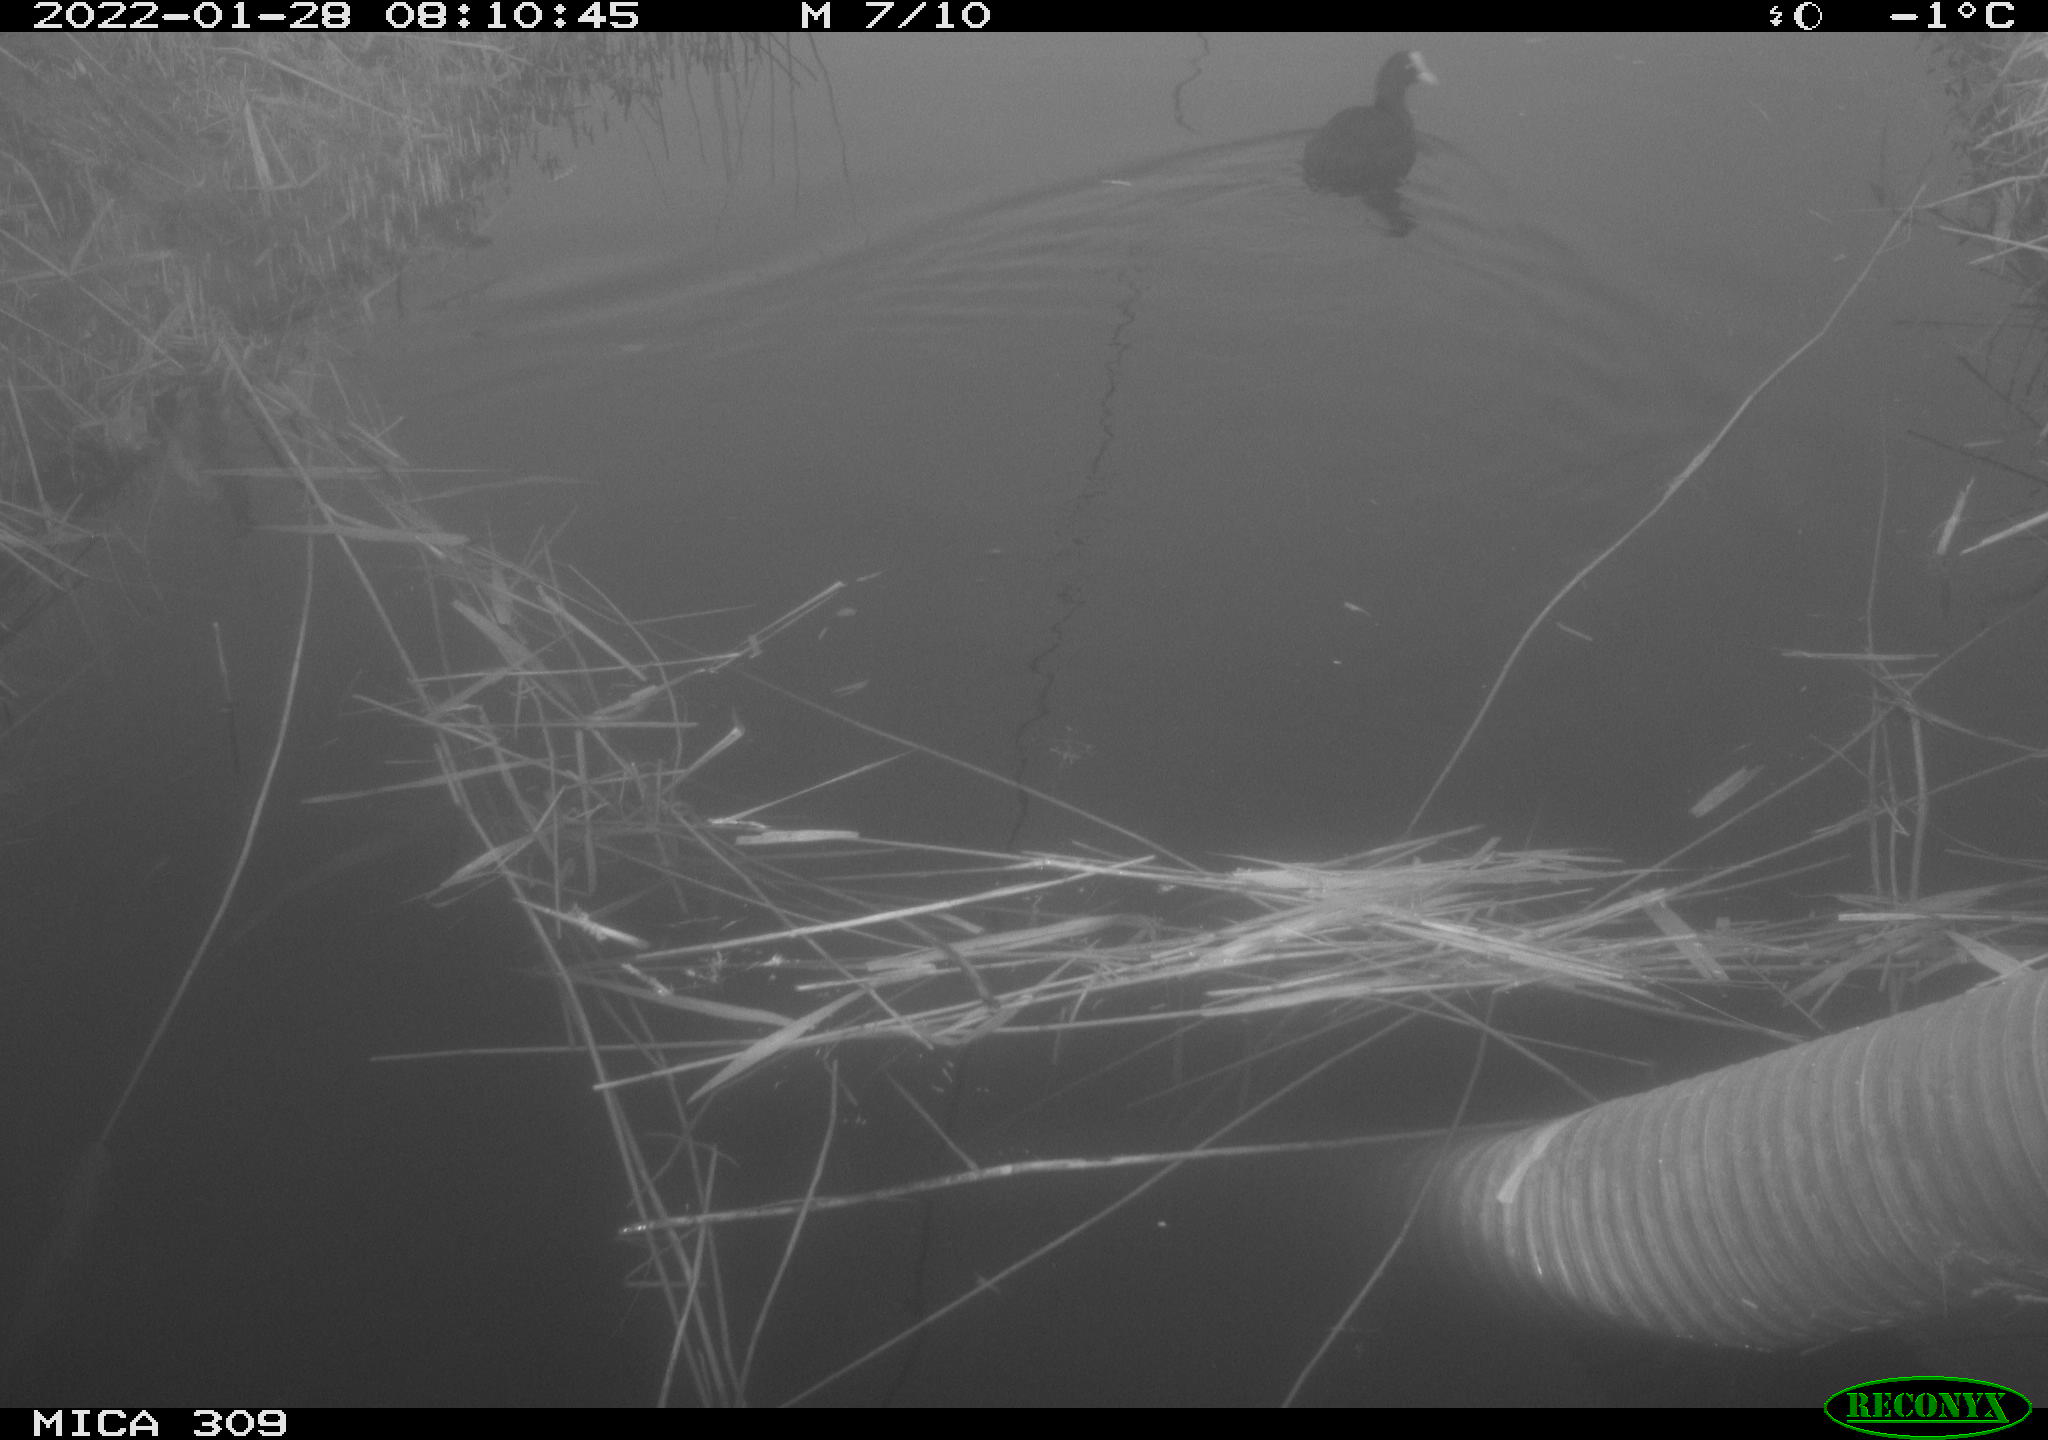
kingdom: Animalia
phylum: Chordata
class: Aves
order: Gruiformes
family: Rallidae
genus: Fulica
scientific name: Fulica atra
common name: Eurasian coot
